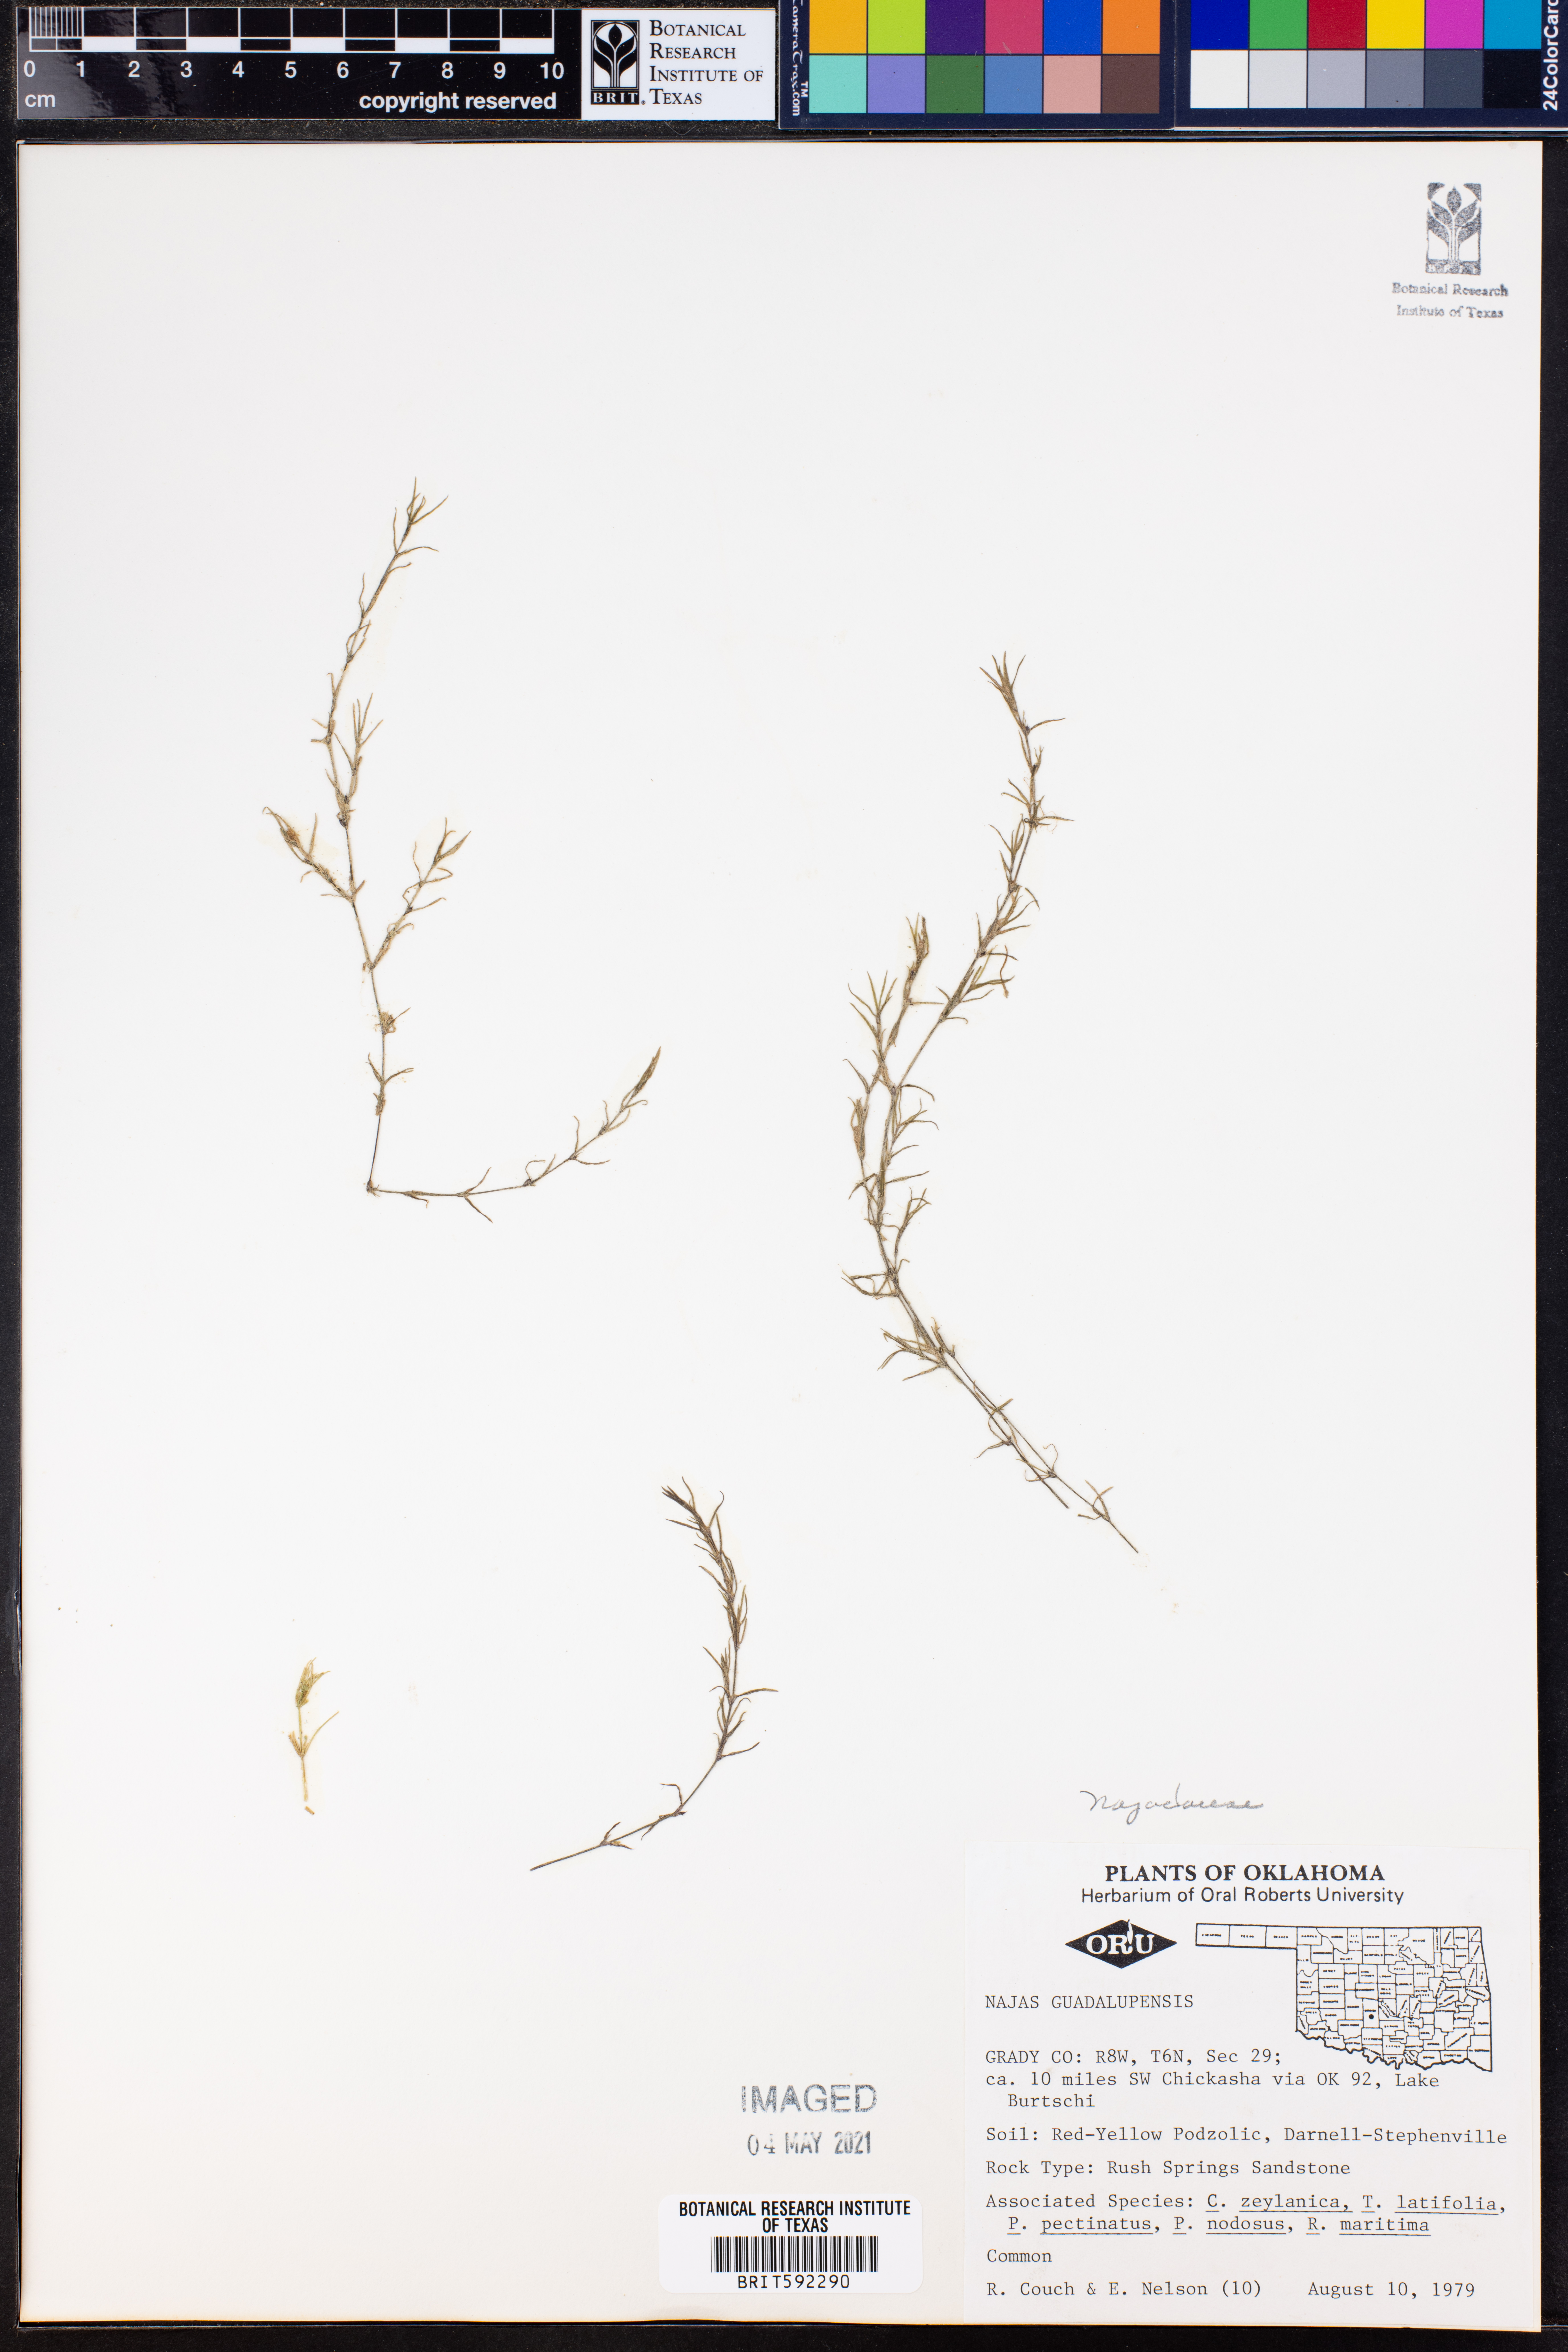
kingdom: Plantae
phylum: Tracheophyta
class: Liliopsida
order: Alismatales
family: Hydrocharitaceae
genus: Najas
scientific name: Najas guadalupensis
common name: Southern naiad
